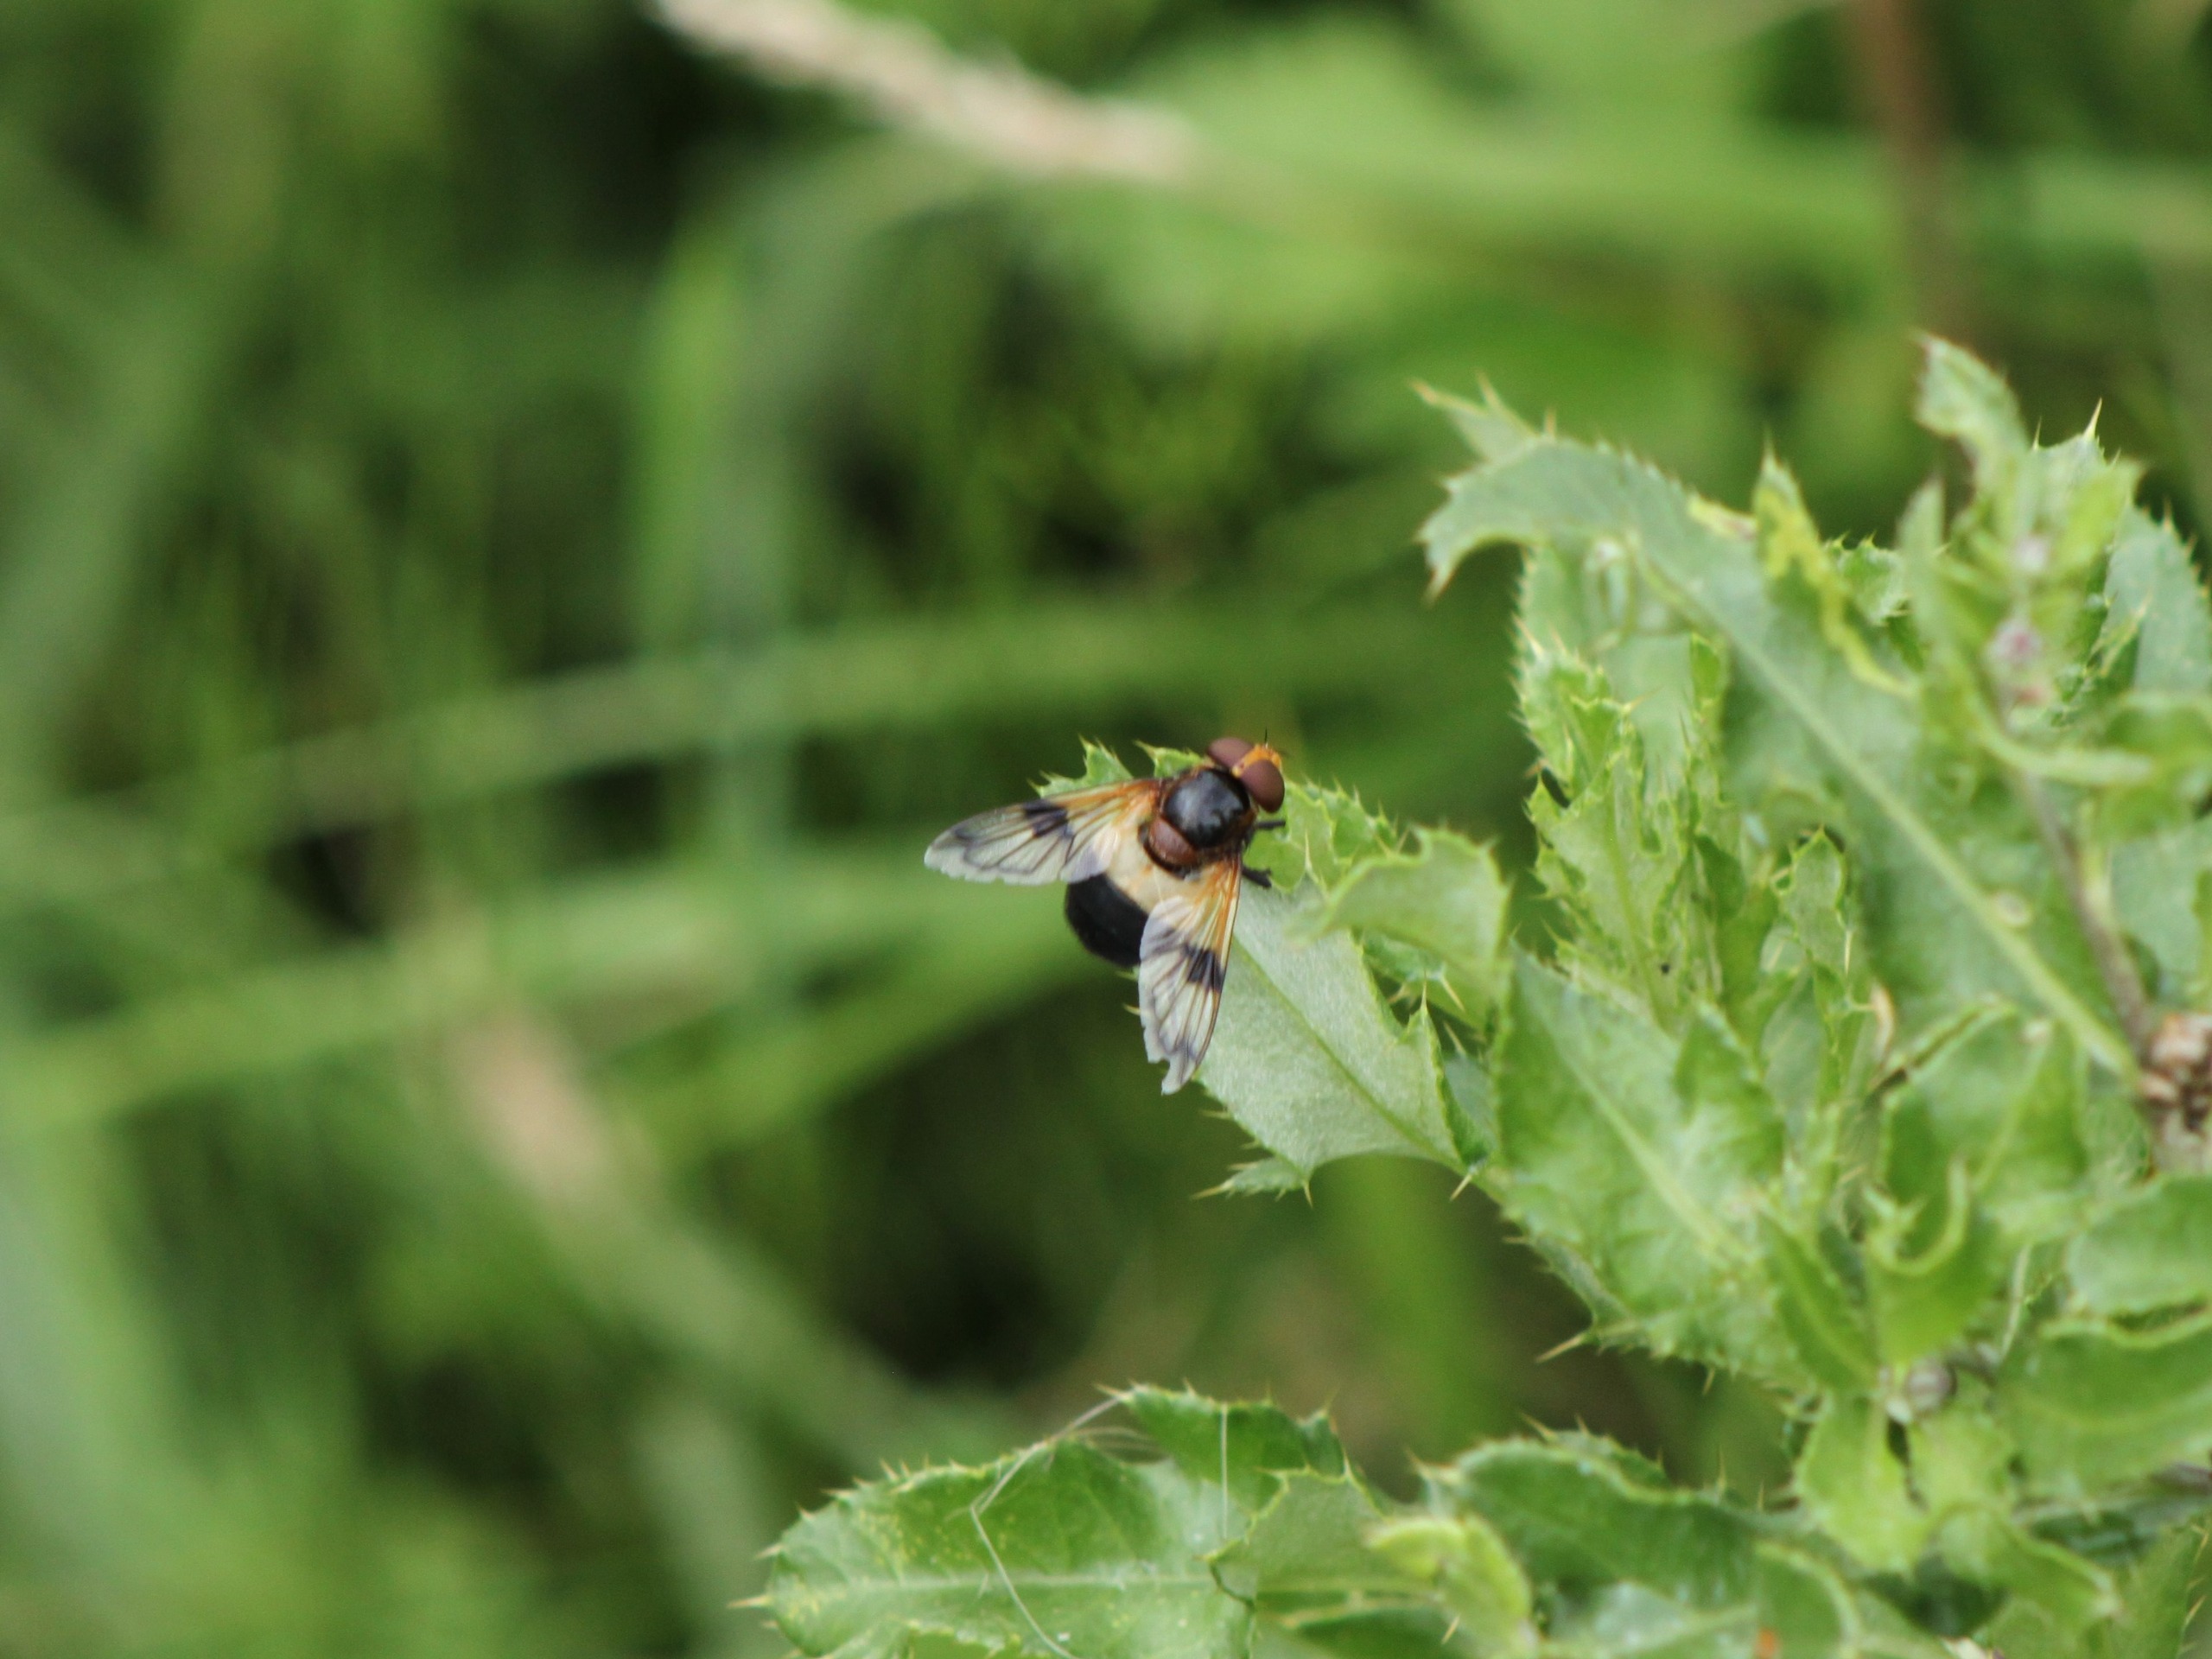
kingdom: Animalia
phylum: Arthropoda
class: Insecta
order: Diptera
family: Syrphidae
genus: Volucella
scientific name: Volucella pellucens
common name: Hvidbåndet humlesvirreflue
